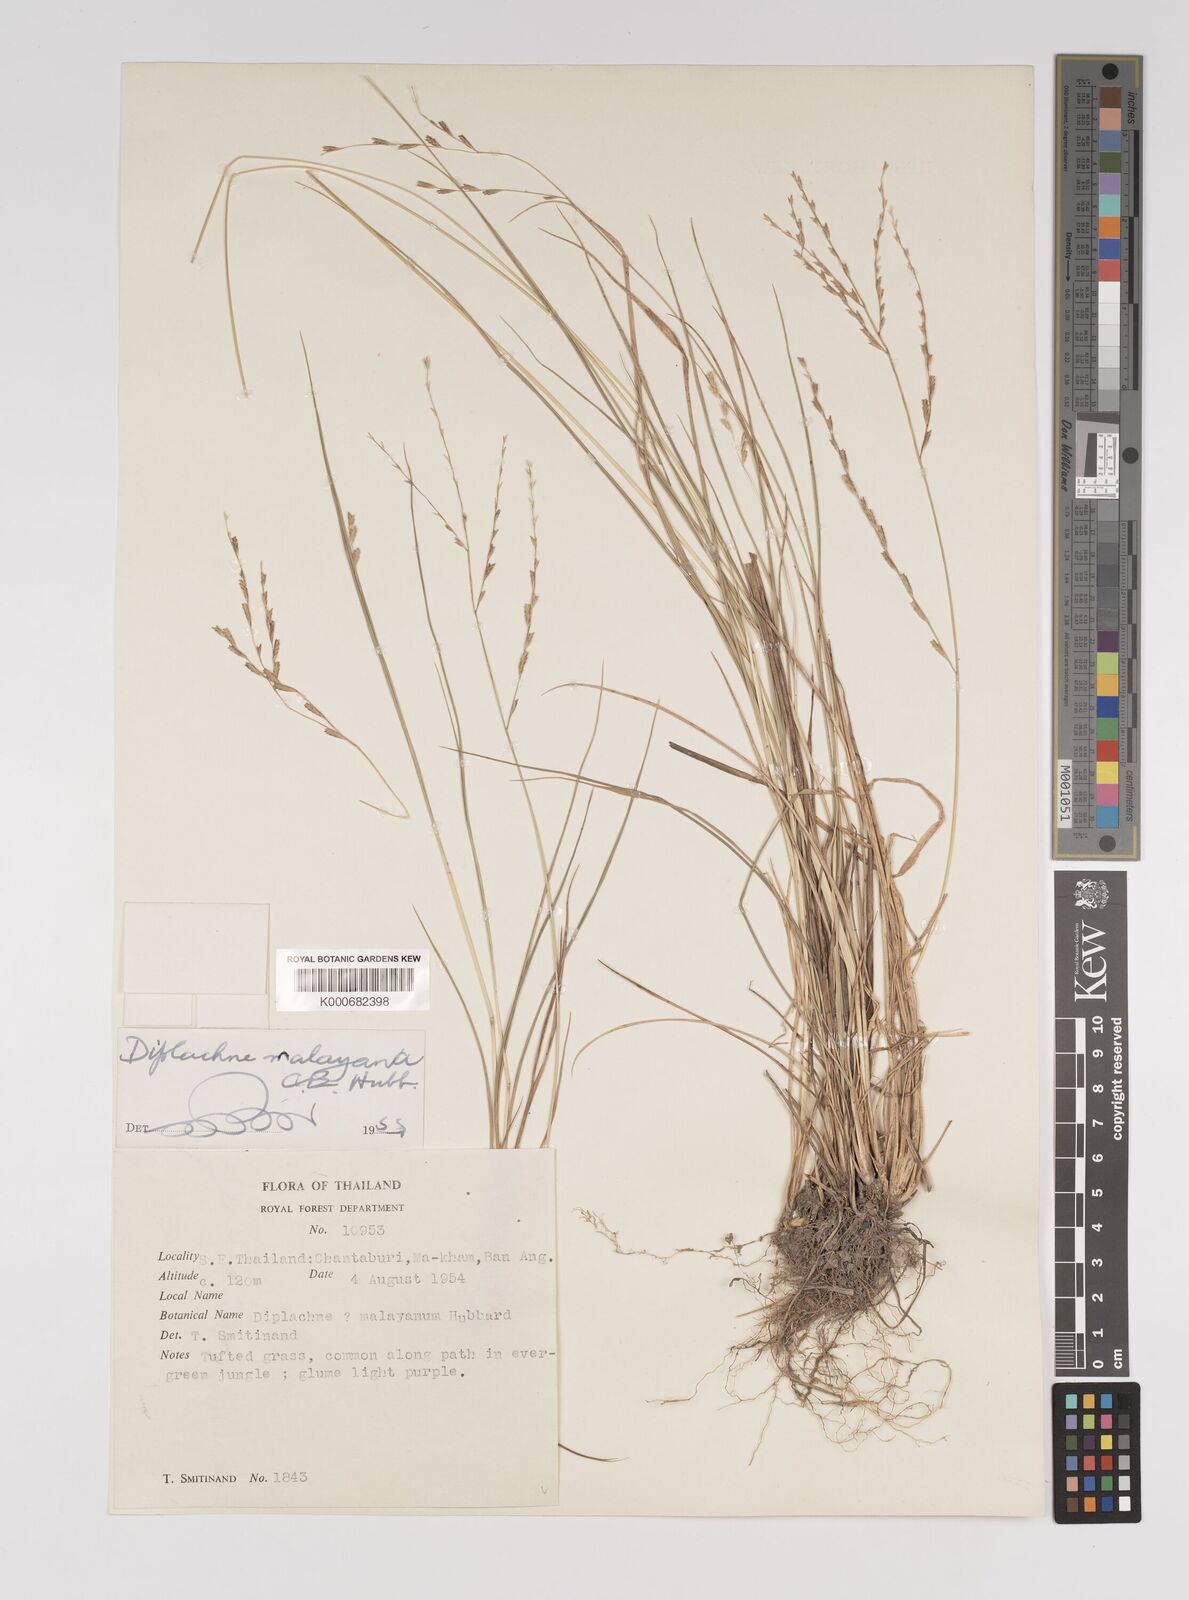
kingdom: Plantae
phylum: Tracheophyta
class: Liliopsida
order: Poales
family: Poaceae
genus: Leptochloa
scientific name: Leptochloa malayana
